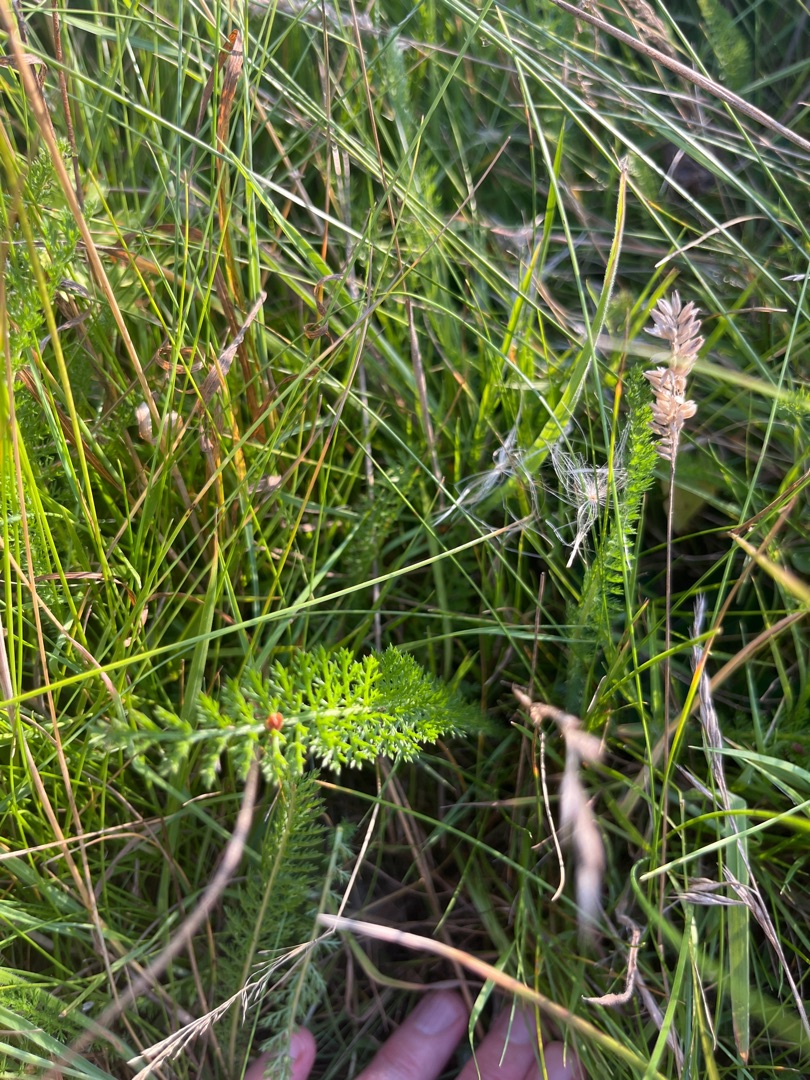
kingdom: Plantae
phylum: Tracheophyta
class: Magnoliopsida
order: Asterales
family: Asteraceae
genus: Achillea
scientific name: Achillea millefolium
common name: Almindelig røllike
